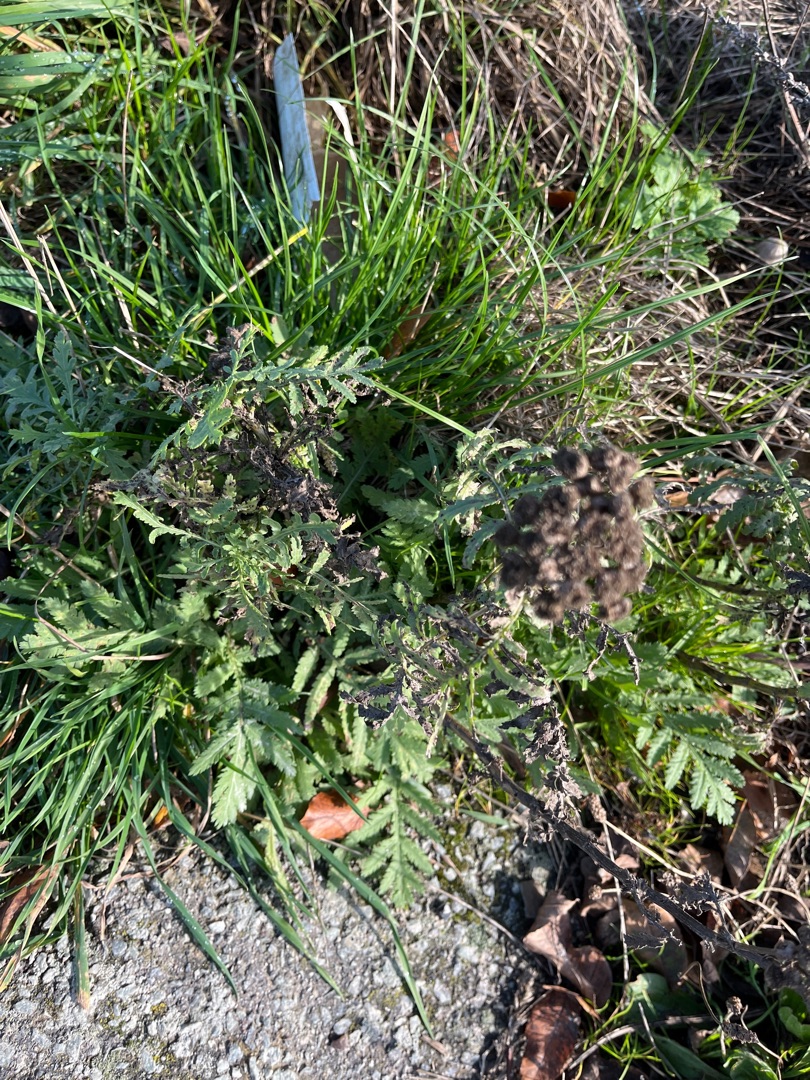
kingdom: Plantae
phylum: Tracheophyta
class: Magnoliopsida
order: Asterales
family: Asteraceae
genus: Tanacetum
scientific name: Tanacetum vulgare
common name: Rejnfan
